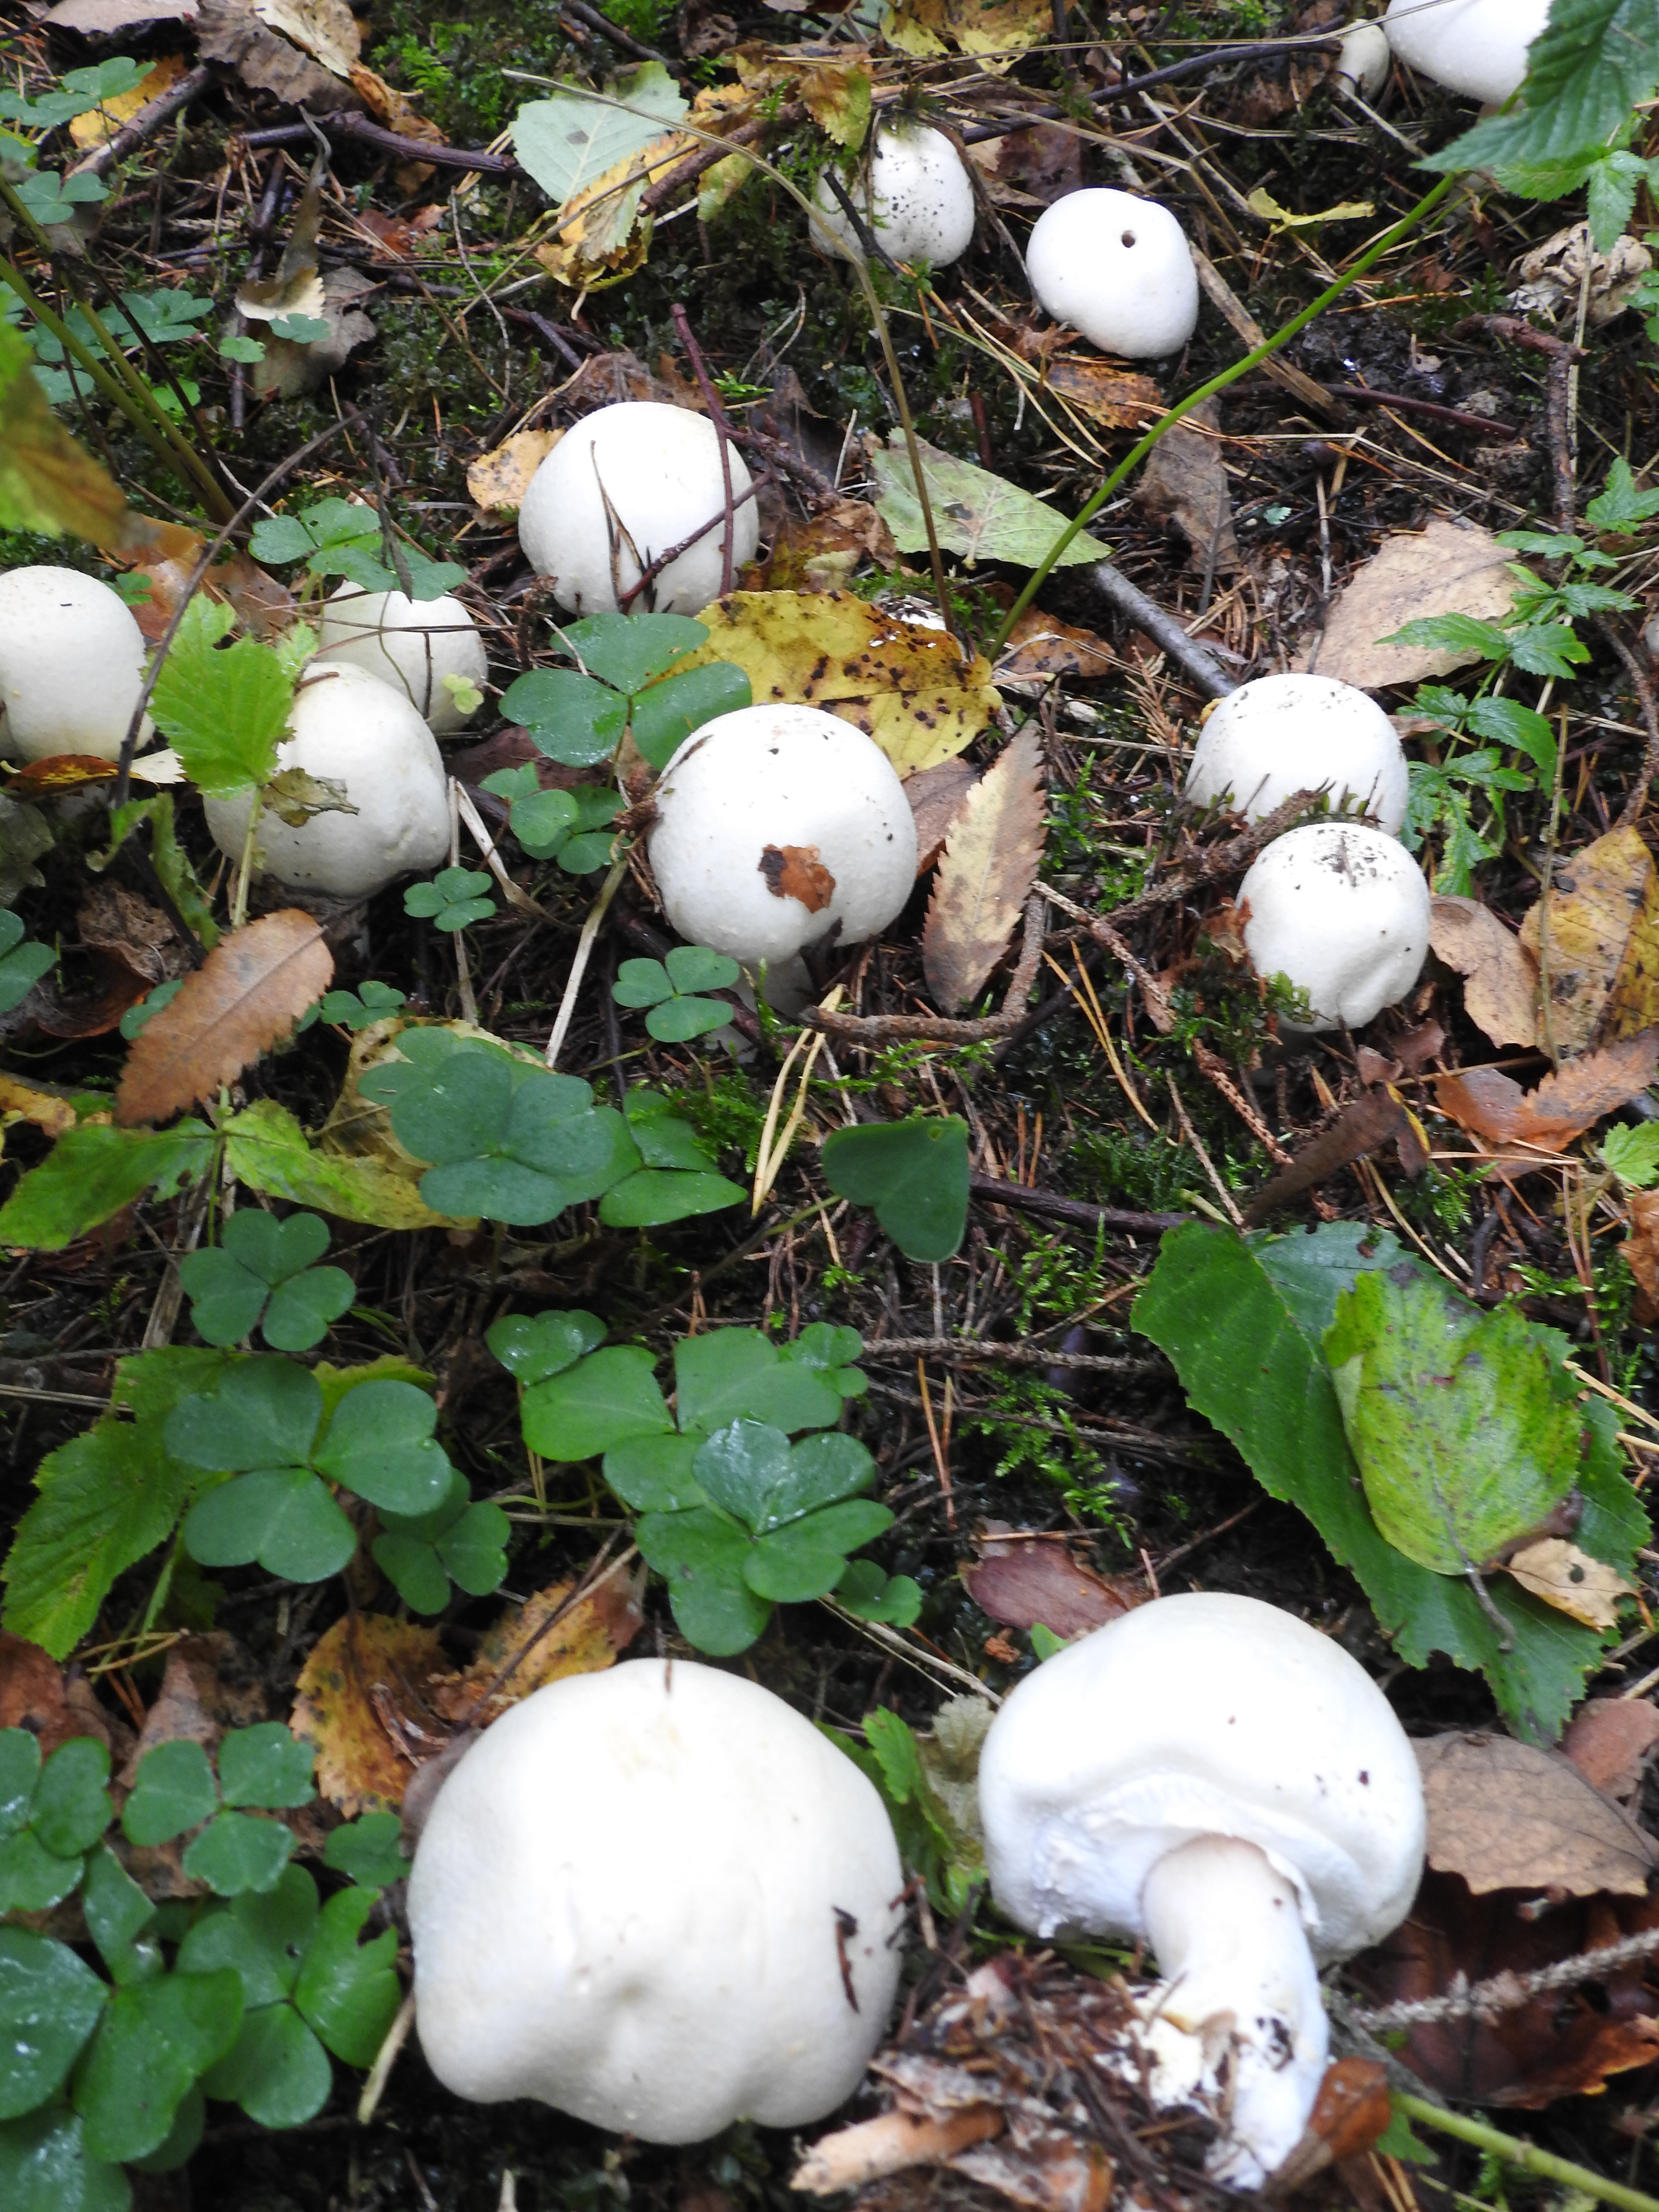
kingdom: Fungi
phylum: Basidiomycota
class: Agaricomycetes
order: Agaricales
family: Agaricaceae
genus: Agaricus
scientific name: Agaricus sylvicola
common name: Wood mushroom
